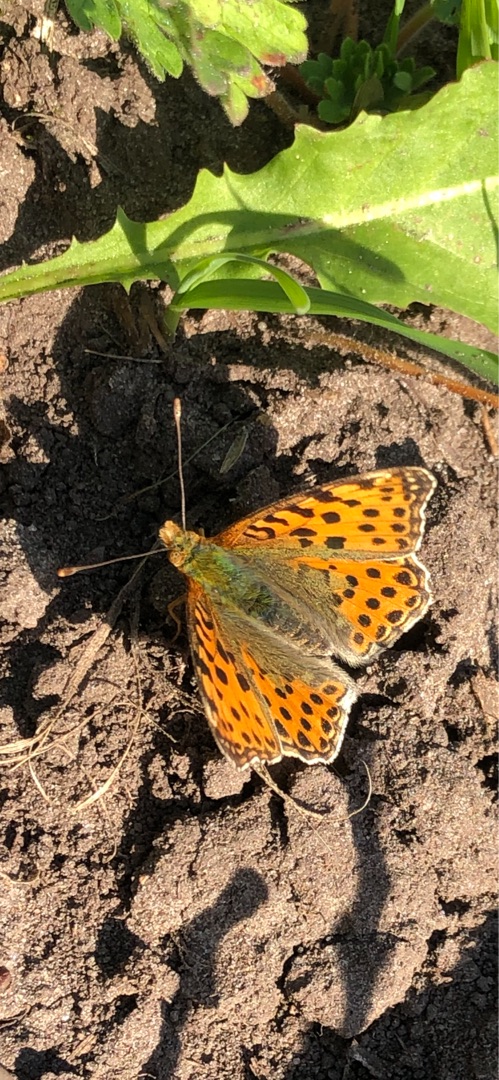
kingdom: Animalia
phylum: Arthropoda
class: Insecta
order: Lepidoptera
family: Nymphalidae
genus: Issoria
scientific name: Issoria lathonia
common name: Storplettet perlemorsommerfugl
